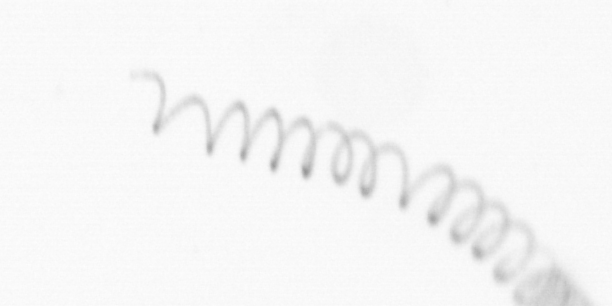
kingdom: Chromista
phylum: Ochrophyta
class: Bacillariophyceae
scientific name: Bacillariophyceae
